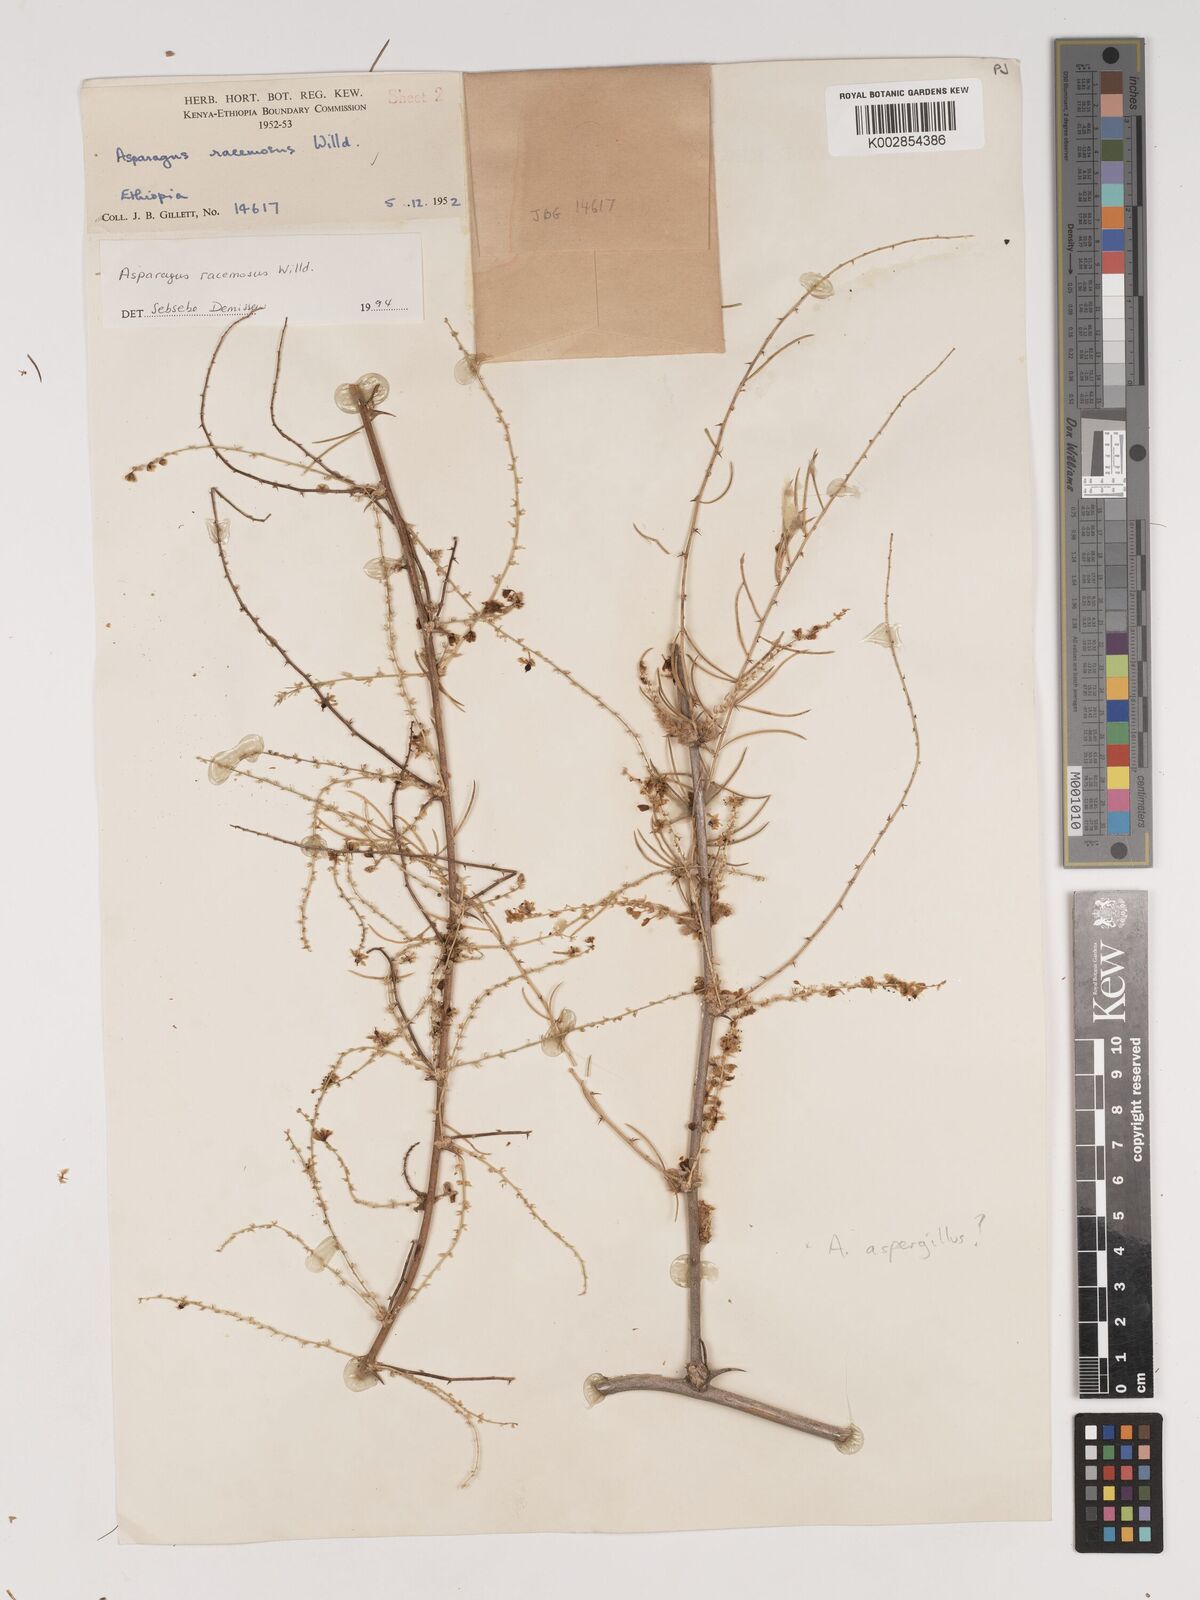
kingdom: Plantae
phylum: Tracheophyta
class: Liliopsida
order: Asparagales
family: Asparagaceae
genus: Asparagus
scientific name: Asparagus racemosus
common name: Asparagus-fern
